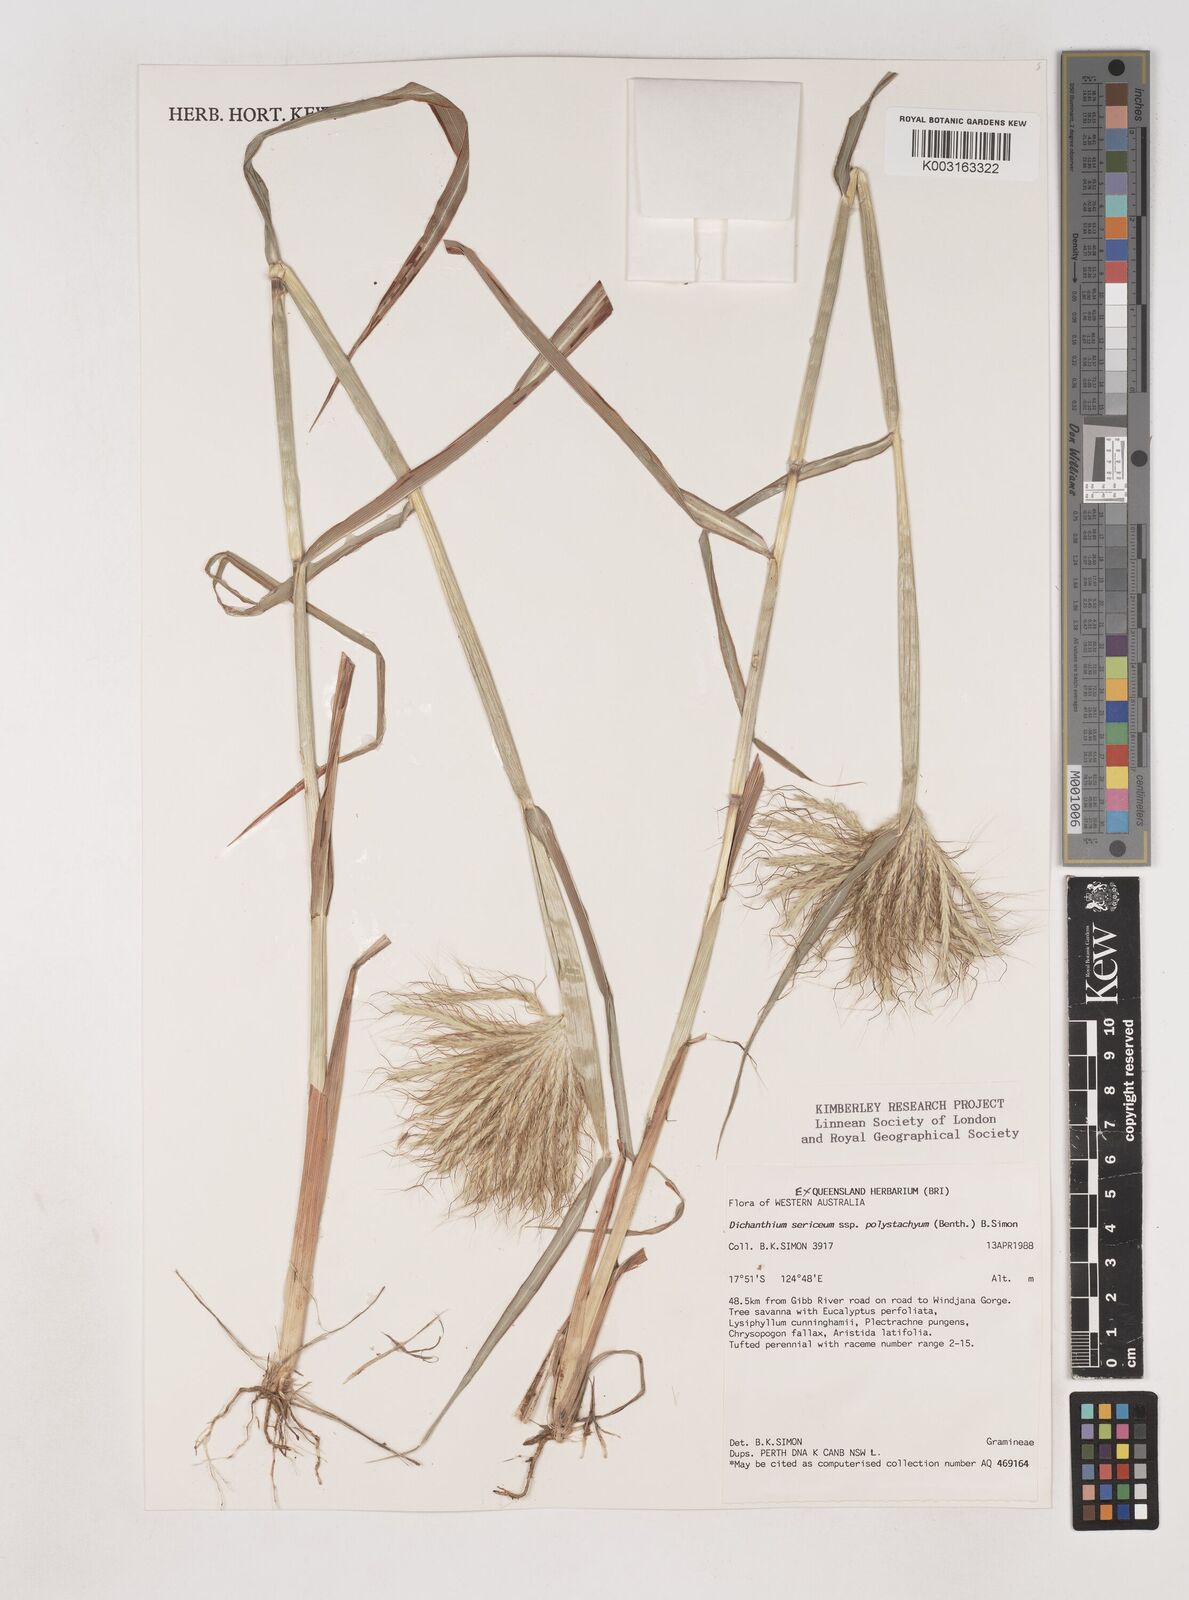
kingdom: Plantae
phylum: Tracheophyta
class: Liliopsida
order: Poales
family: Poaceae
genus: Dichanthium
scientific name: Dichanthium sericeum
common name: Silky bluestem
